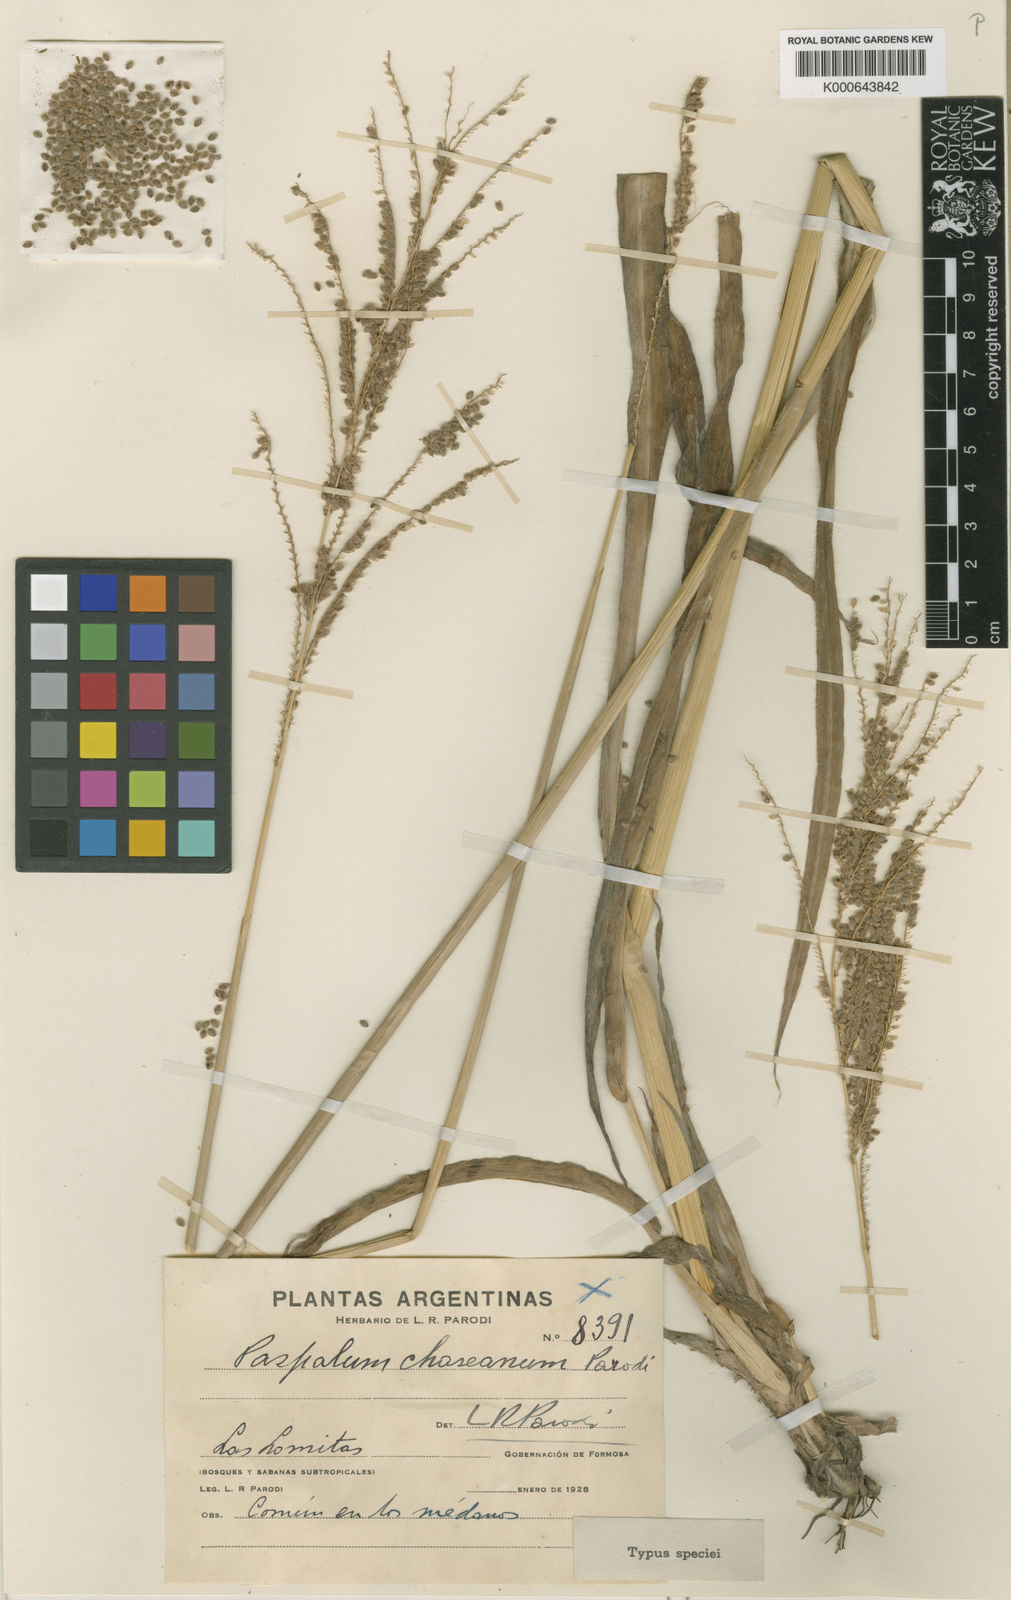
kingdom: Plantae
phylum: Tracheophyta
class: Liliopsida
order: Poales
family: Poaceae
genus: Paspalum
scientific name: Paspalum chaseanum
